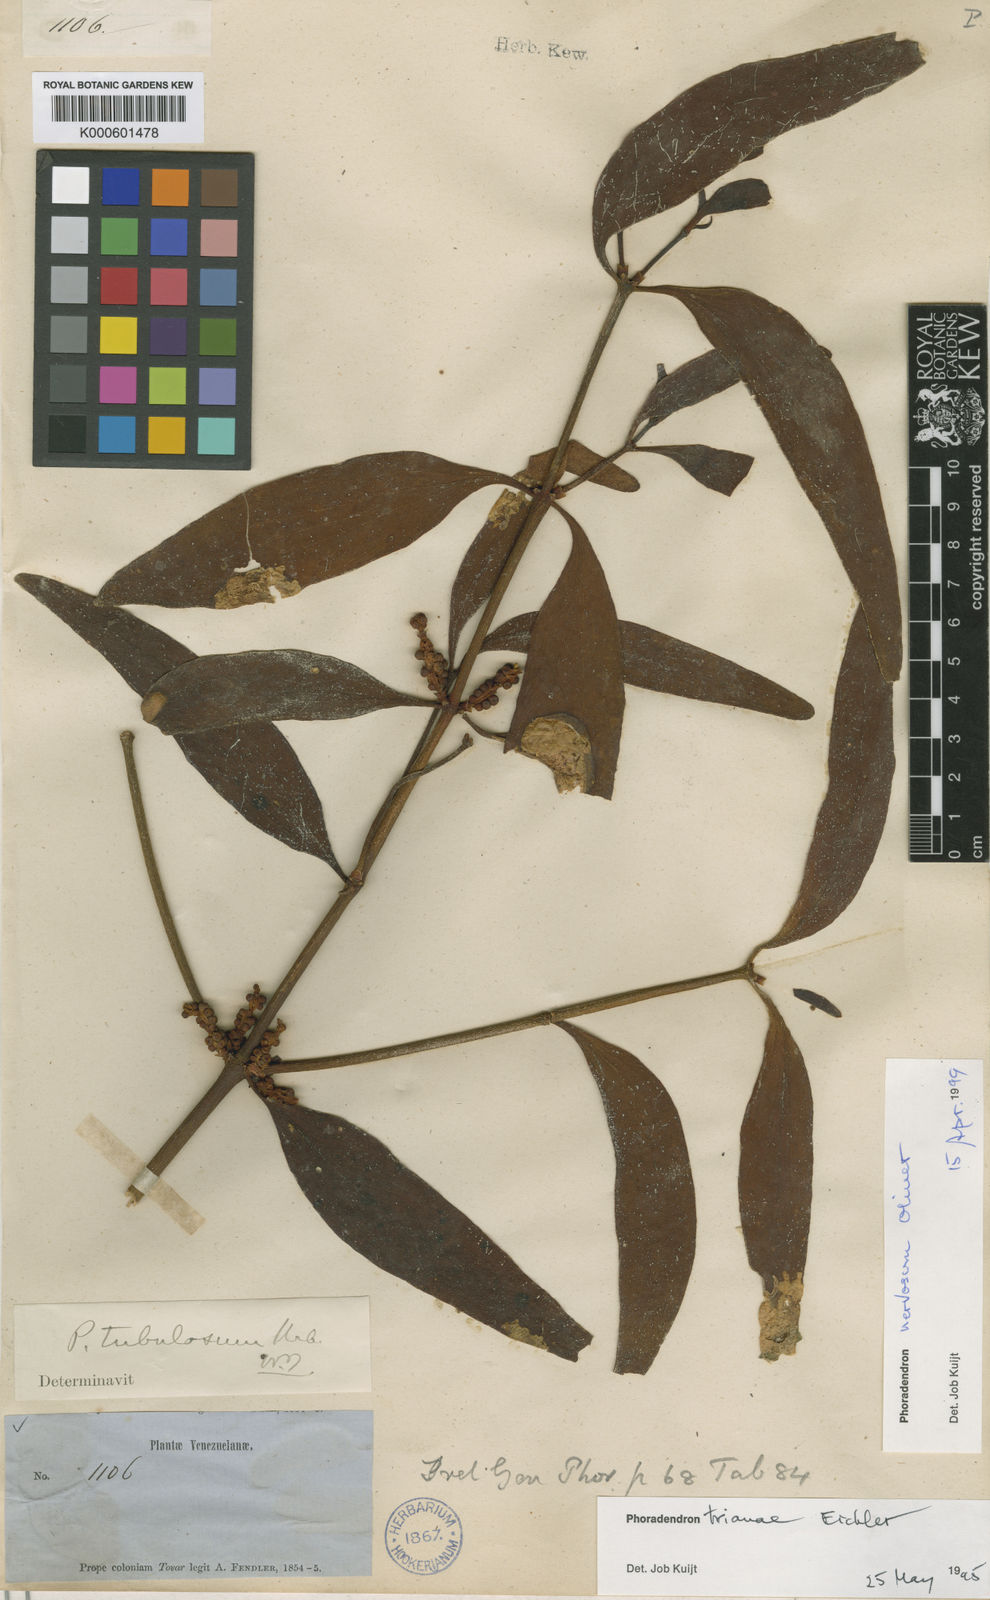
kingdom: Plantae
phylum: Tracheophyta
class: Magnoliopsida
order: Santalales
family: Viscaceae
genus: Phoradendron
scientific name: Phoradendron nervosum
